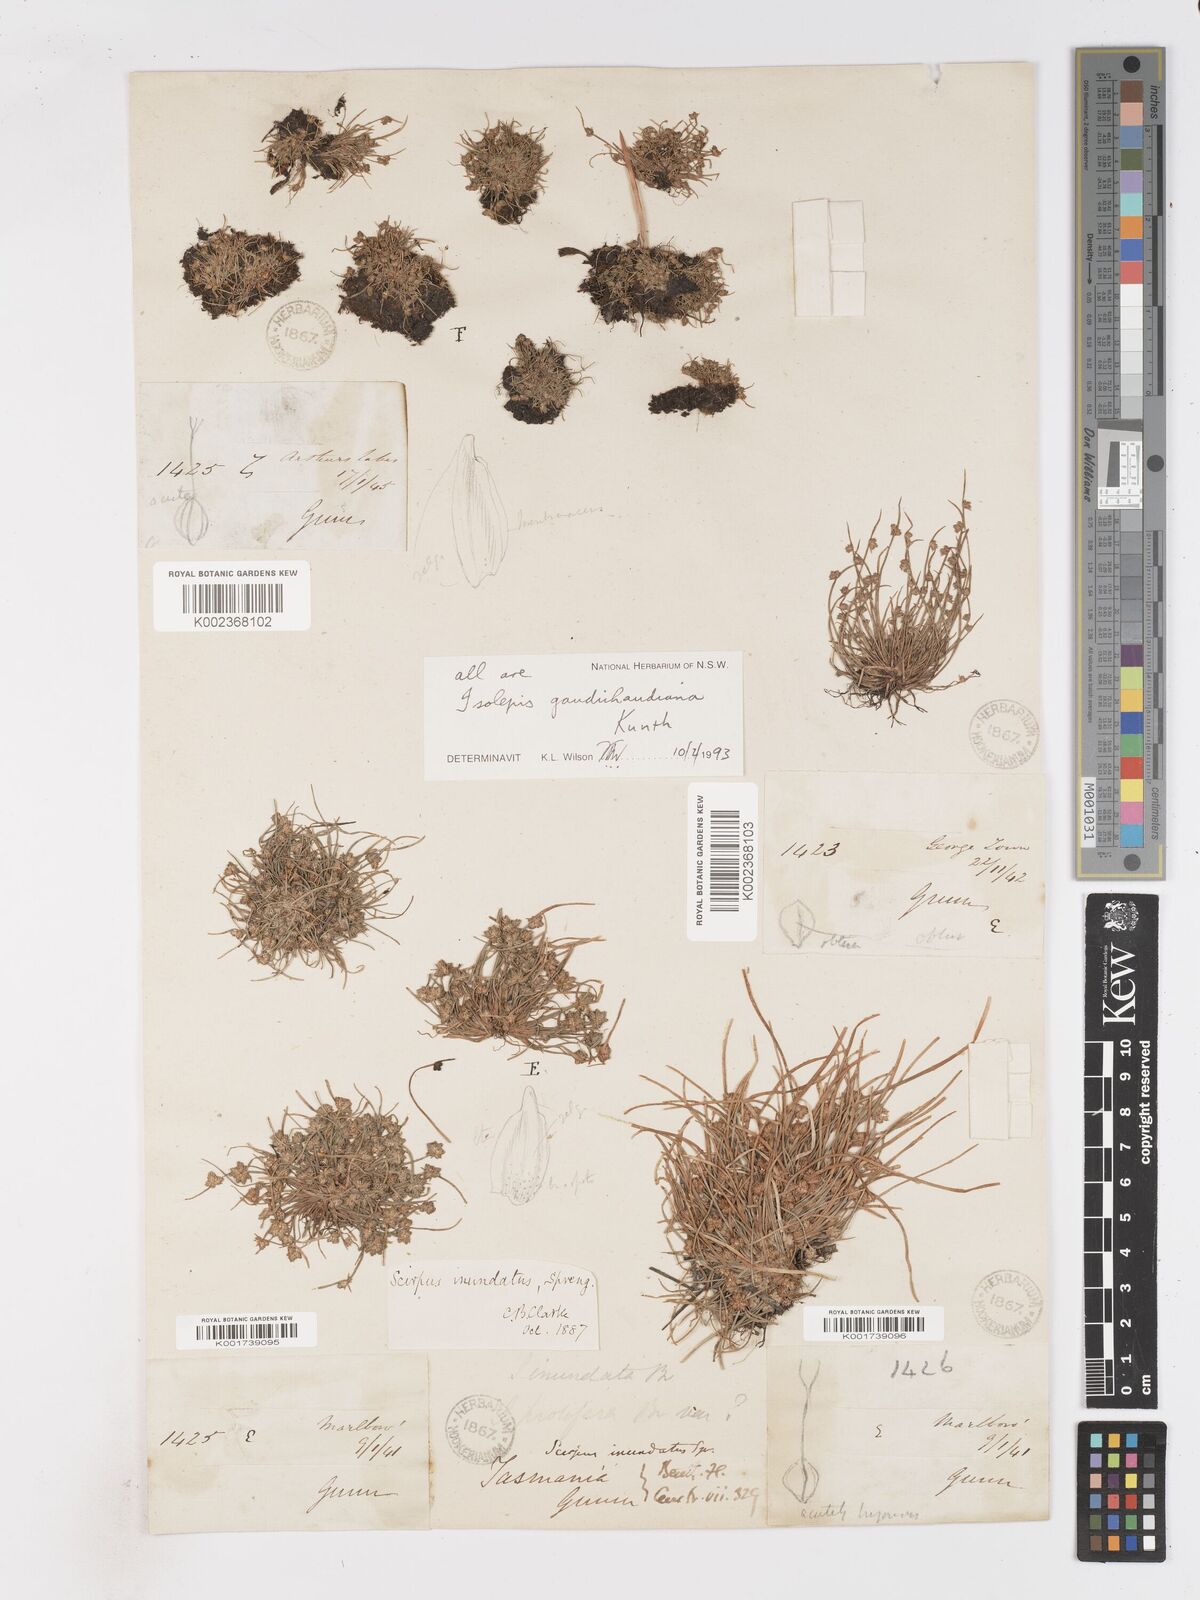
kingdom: Plantae
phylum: Tracheophyta
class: Liliopsida
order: Poales
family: Cyperaceae
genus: Isolepis
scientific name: Isolepis gaudichaudiana
